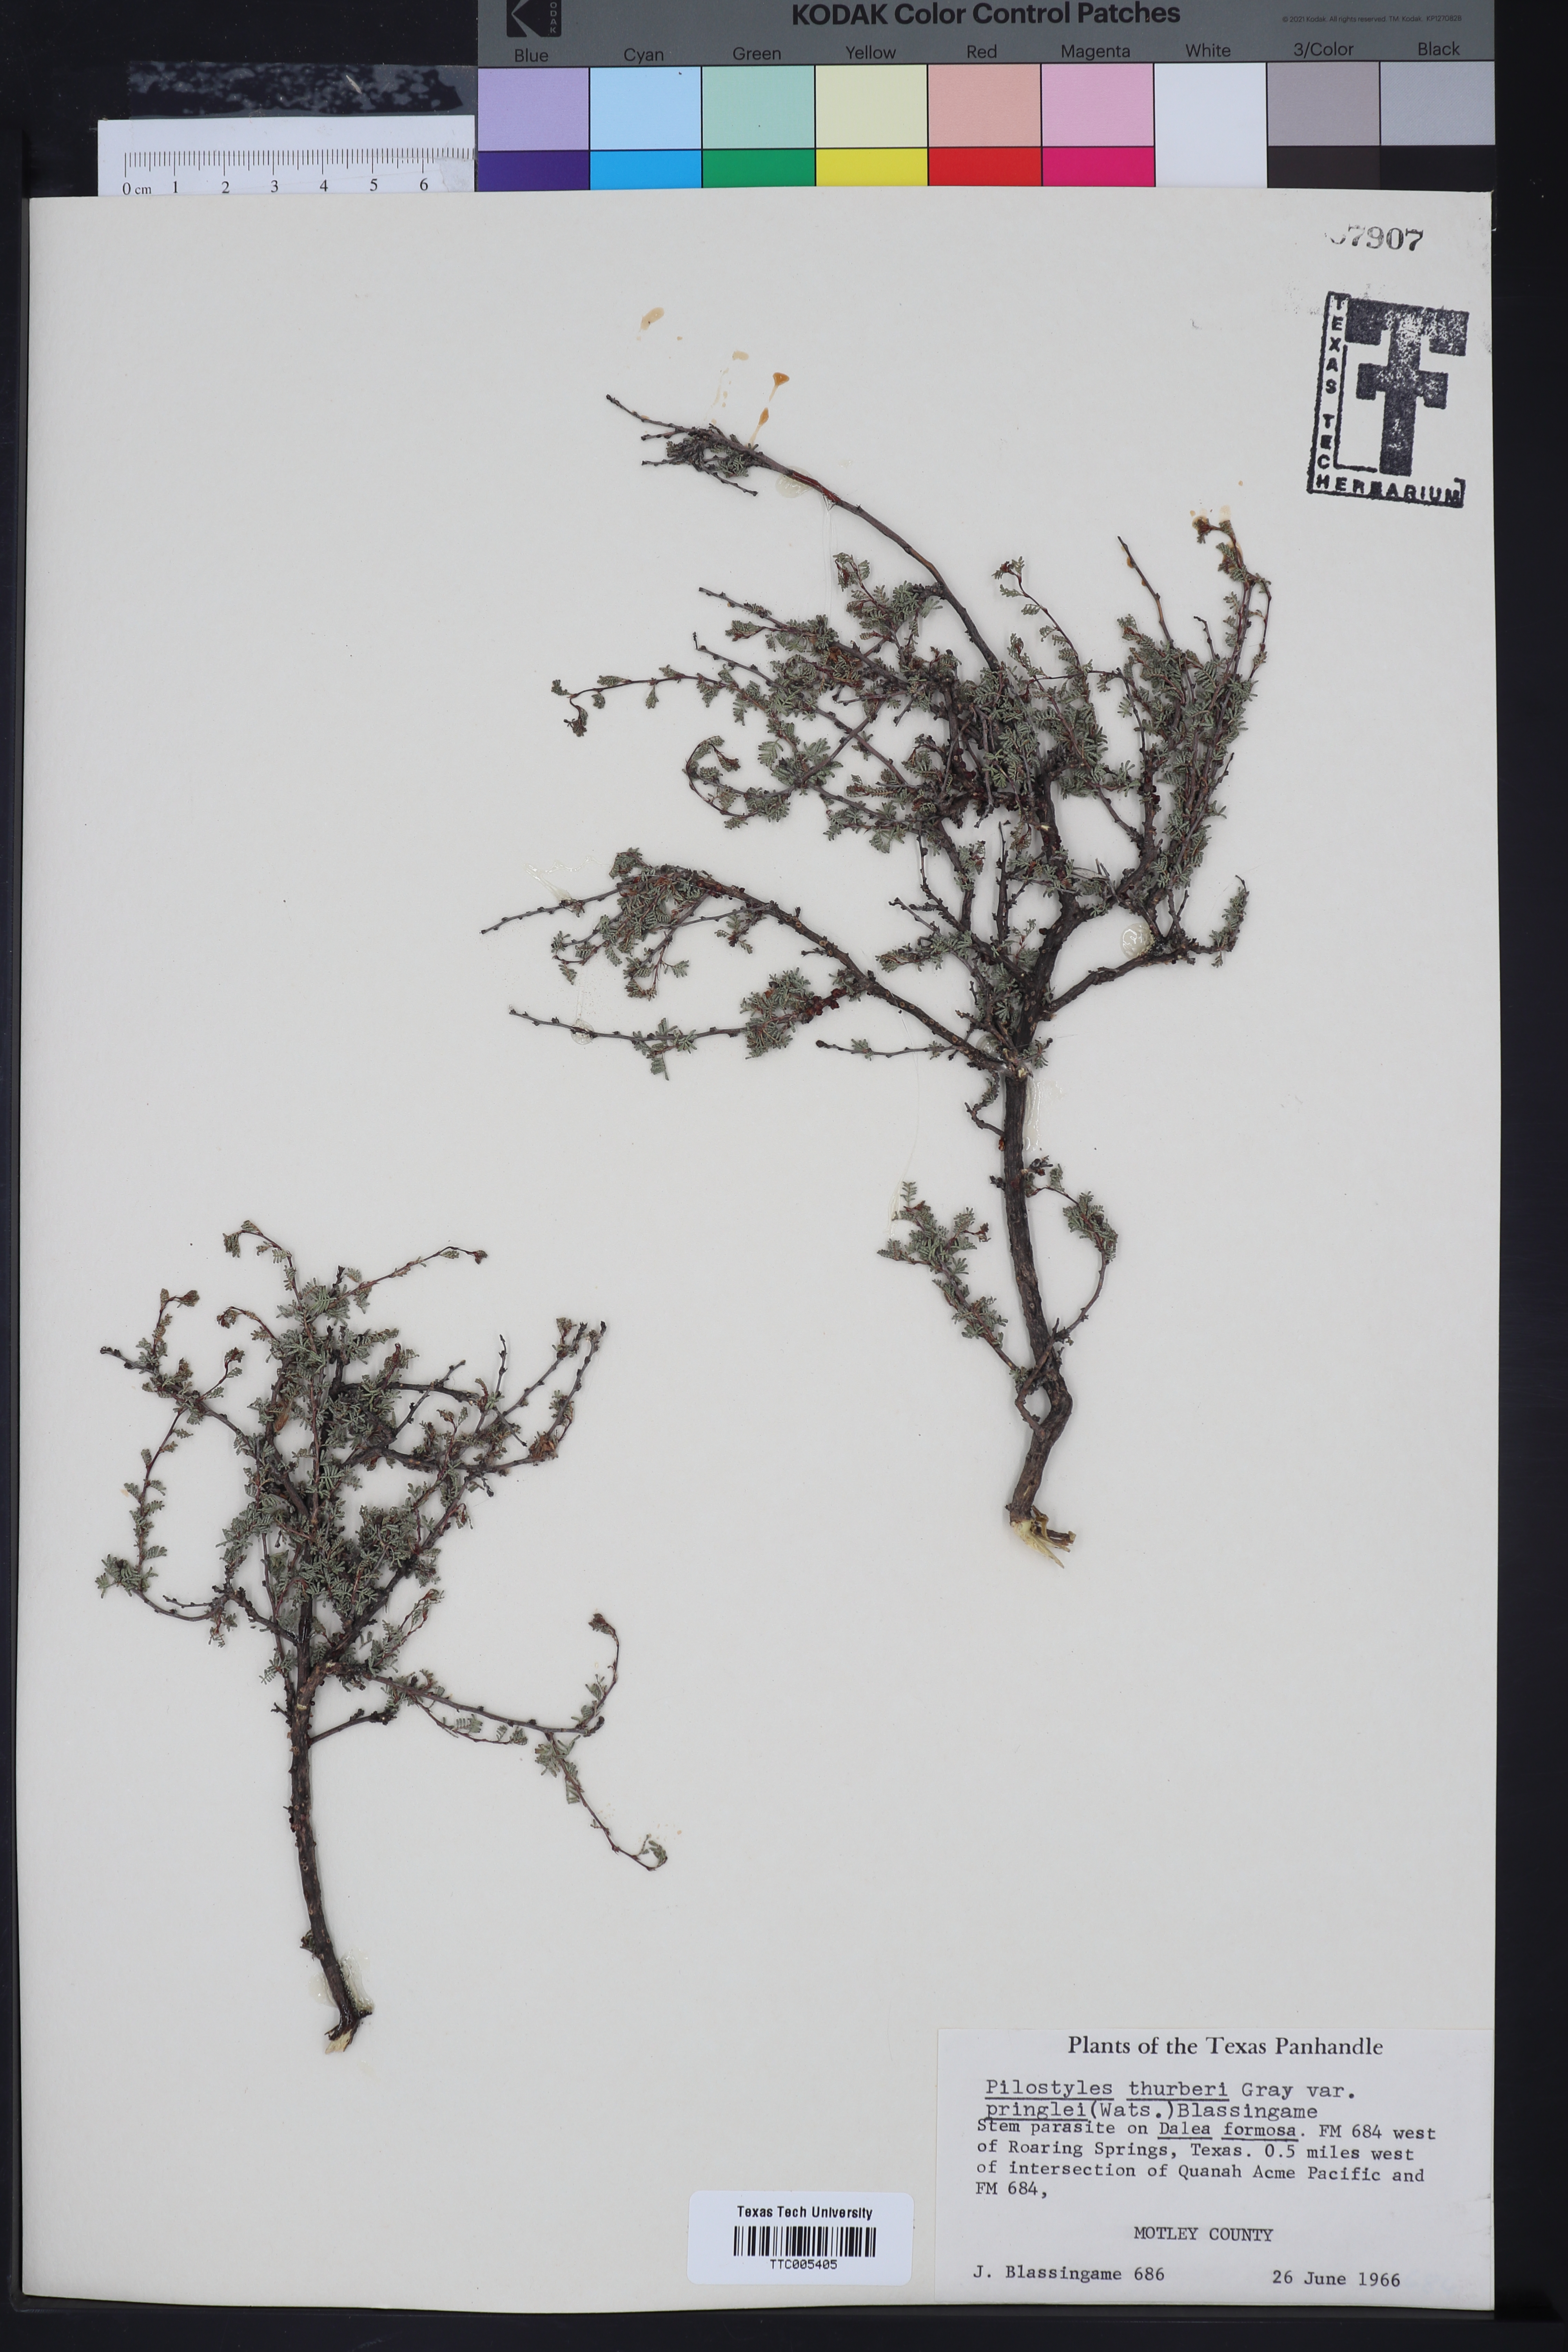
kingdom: Plantae
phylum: Tracheophyta
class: Magnoliopsida
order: Cucurbitales
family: Apodanthaceae
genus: Pilostyles
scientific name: Pilostyles thurberi
